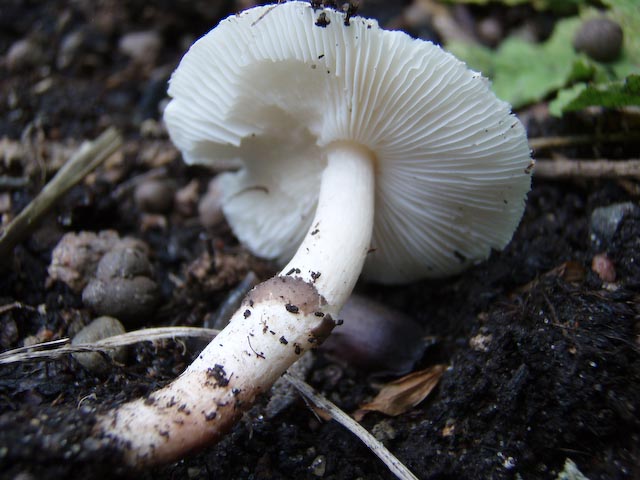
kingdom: Fungi
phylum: Basidiomycota
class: Agaricomycetes
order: Agaricales
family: Agaricaceae
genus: Lepiota
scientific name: Lepiota lilacea
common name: lillabrun parasolhat
